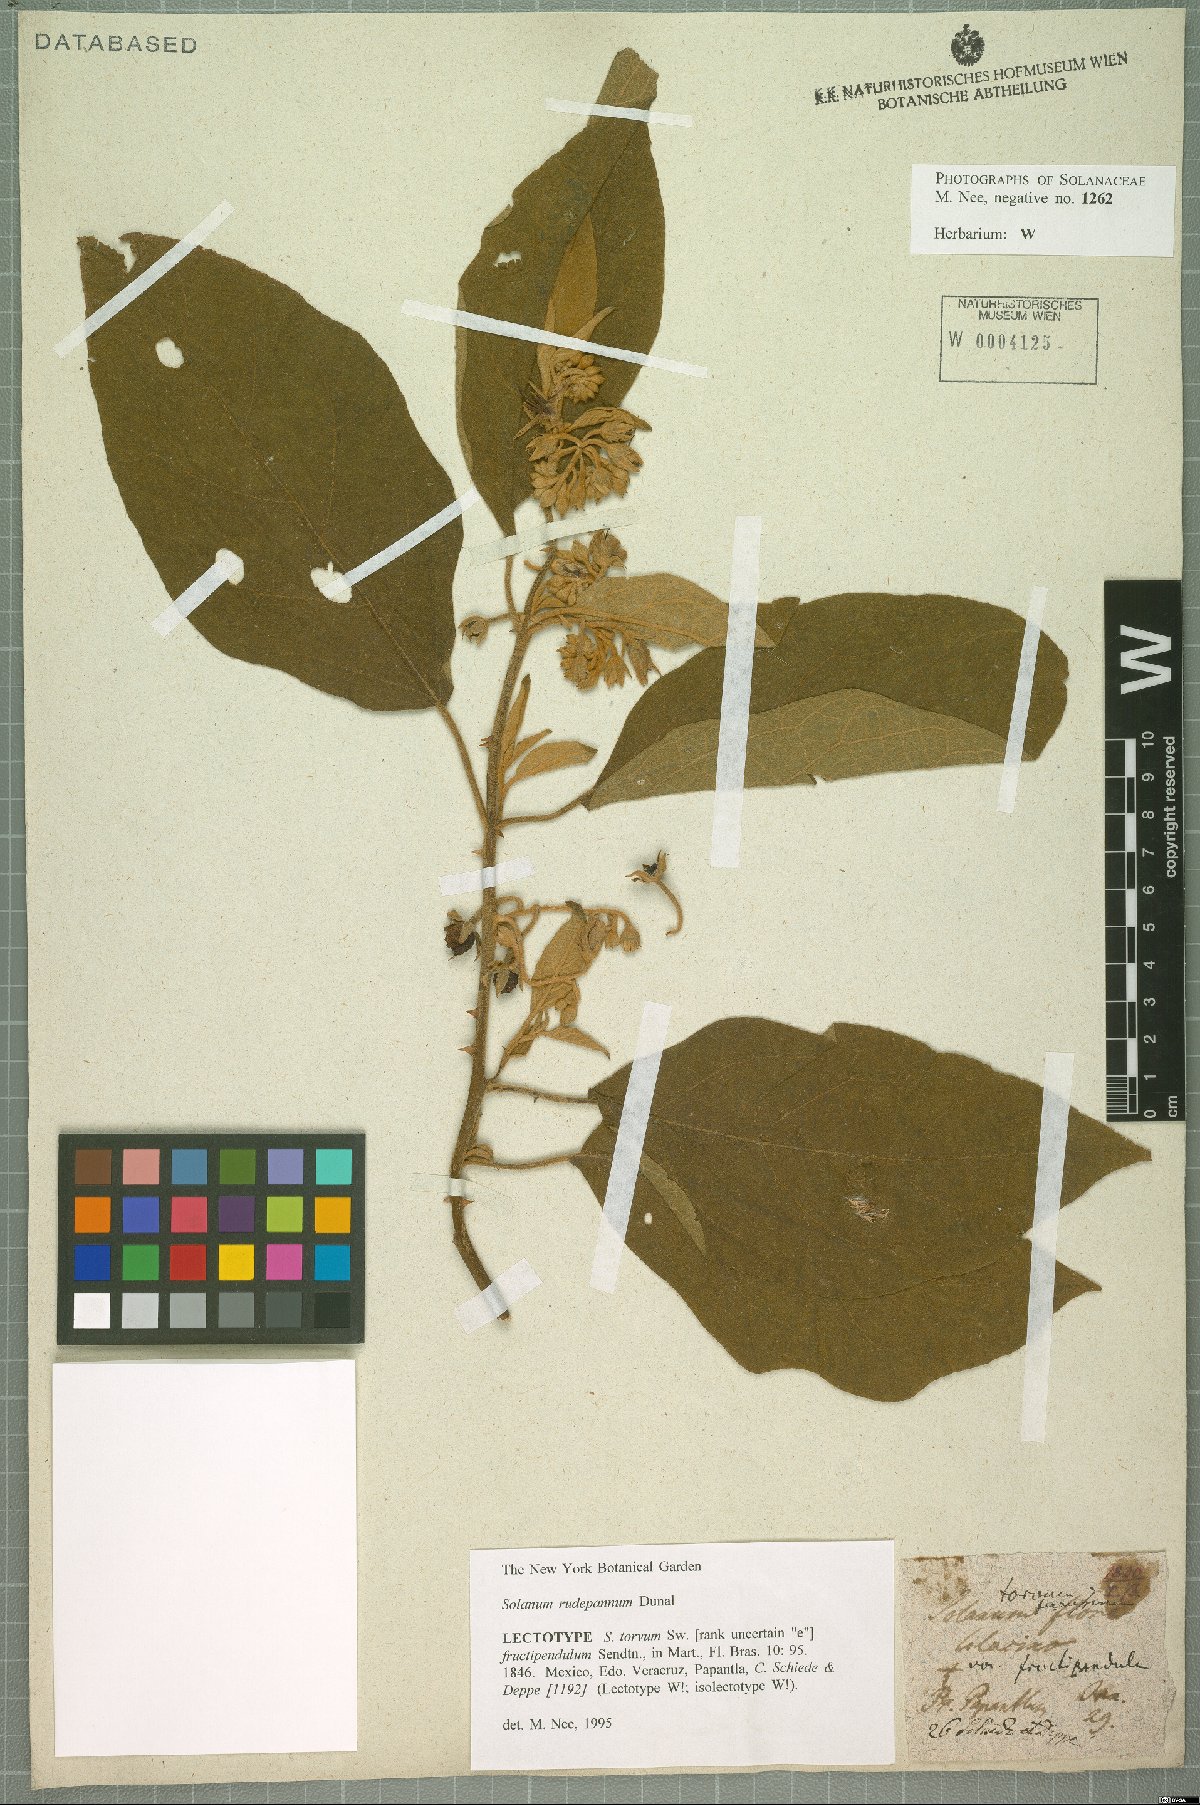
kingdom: Plantae
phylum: Tracheophyta
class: Magnoliopsida
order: Solanales
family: Solanaceae
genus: Solanum
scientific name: Solanum rude-pannum
